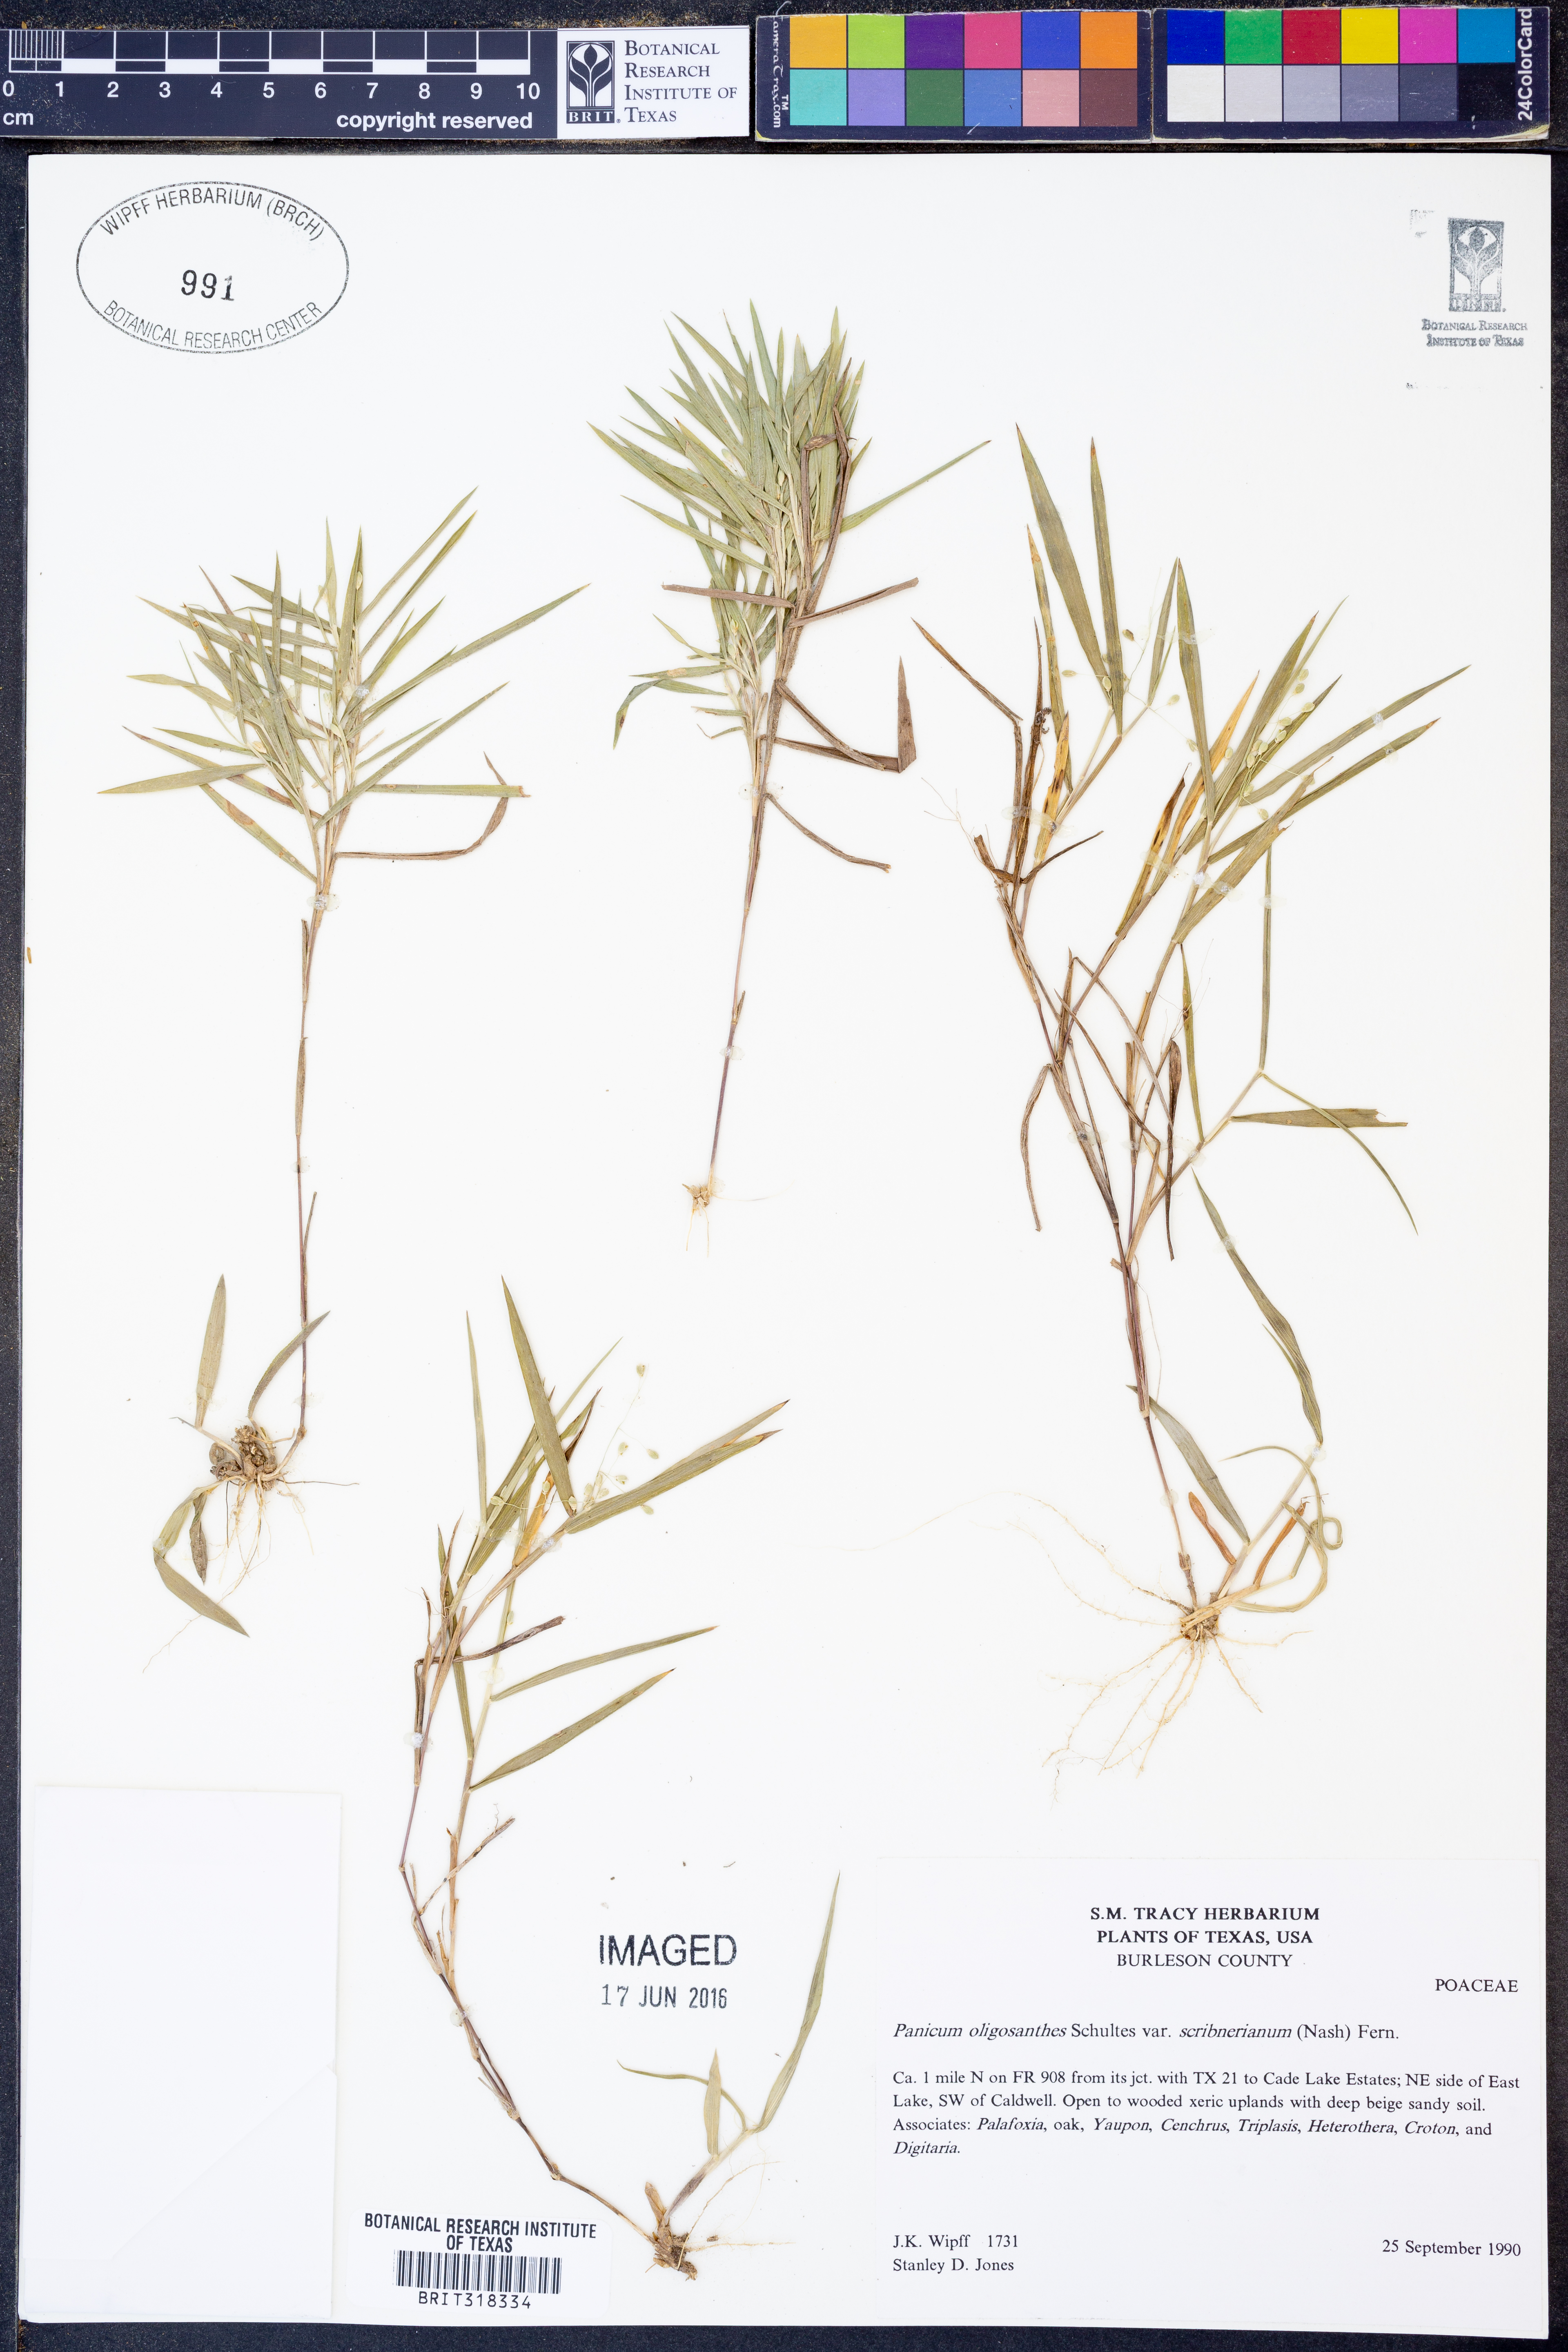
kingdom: Plantae
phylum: Tracheophyta
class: Liliopsida
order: Poales
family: Poaceae
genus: Dichanthelium
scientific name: Dichanthelium scribnerianum
